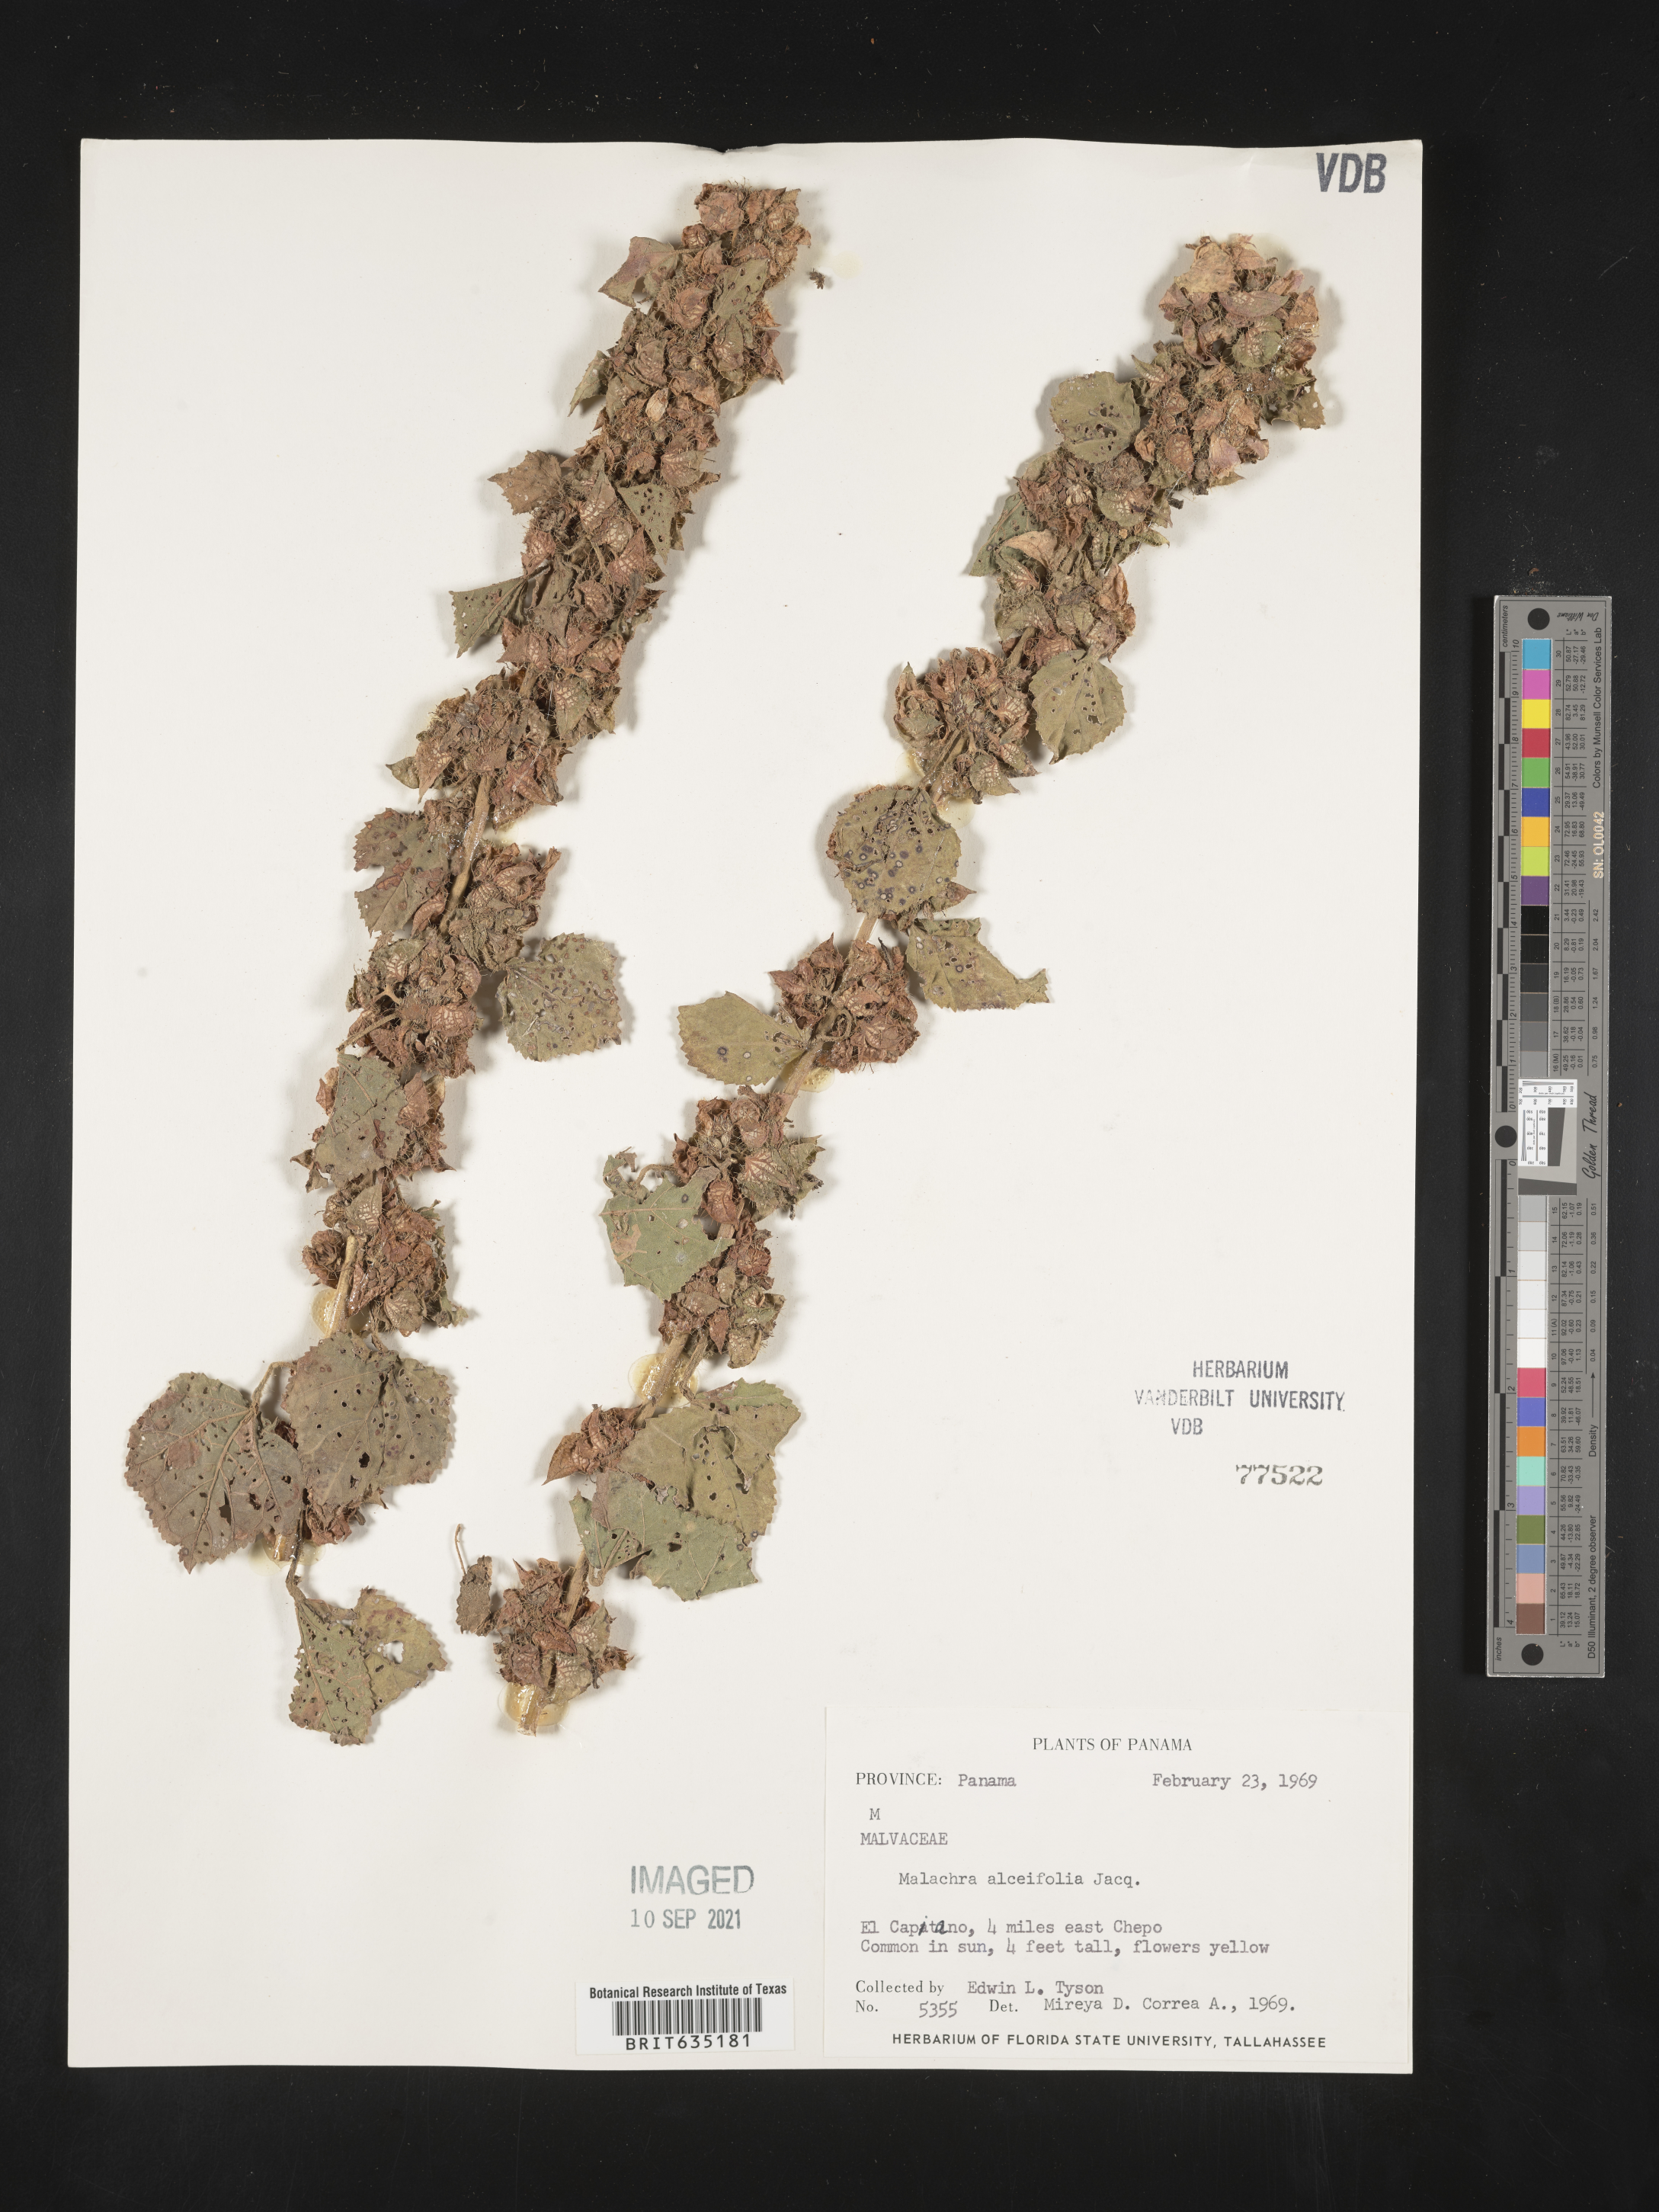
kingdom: Plantae
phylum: Tracheophyta
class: Magnoliopsida
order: Malvales
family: Malvaceae
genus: Malachra
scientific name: Malachra
